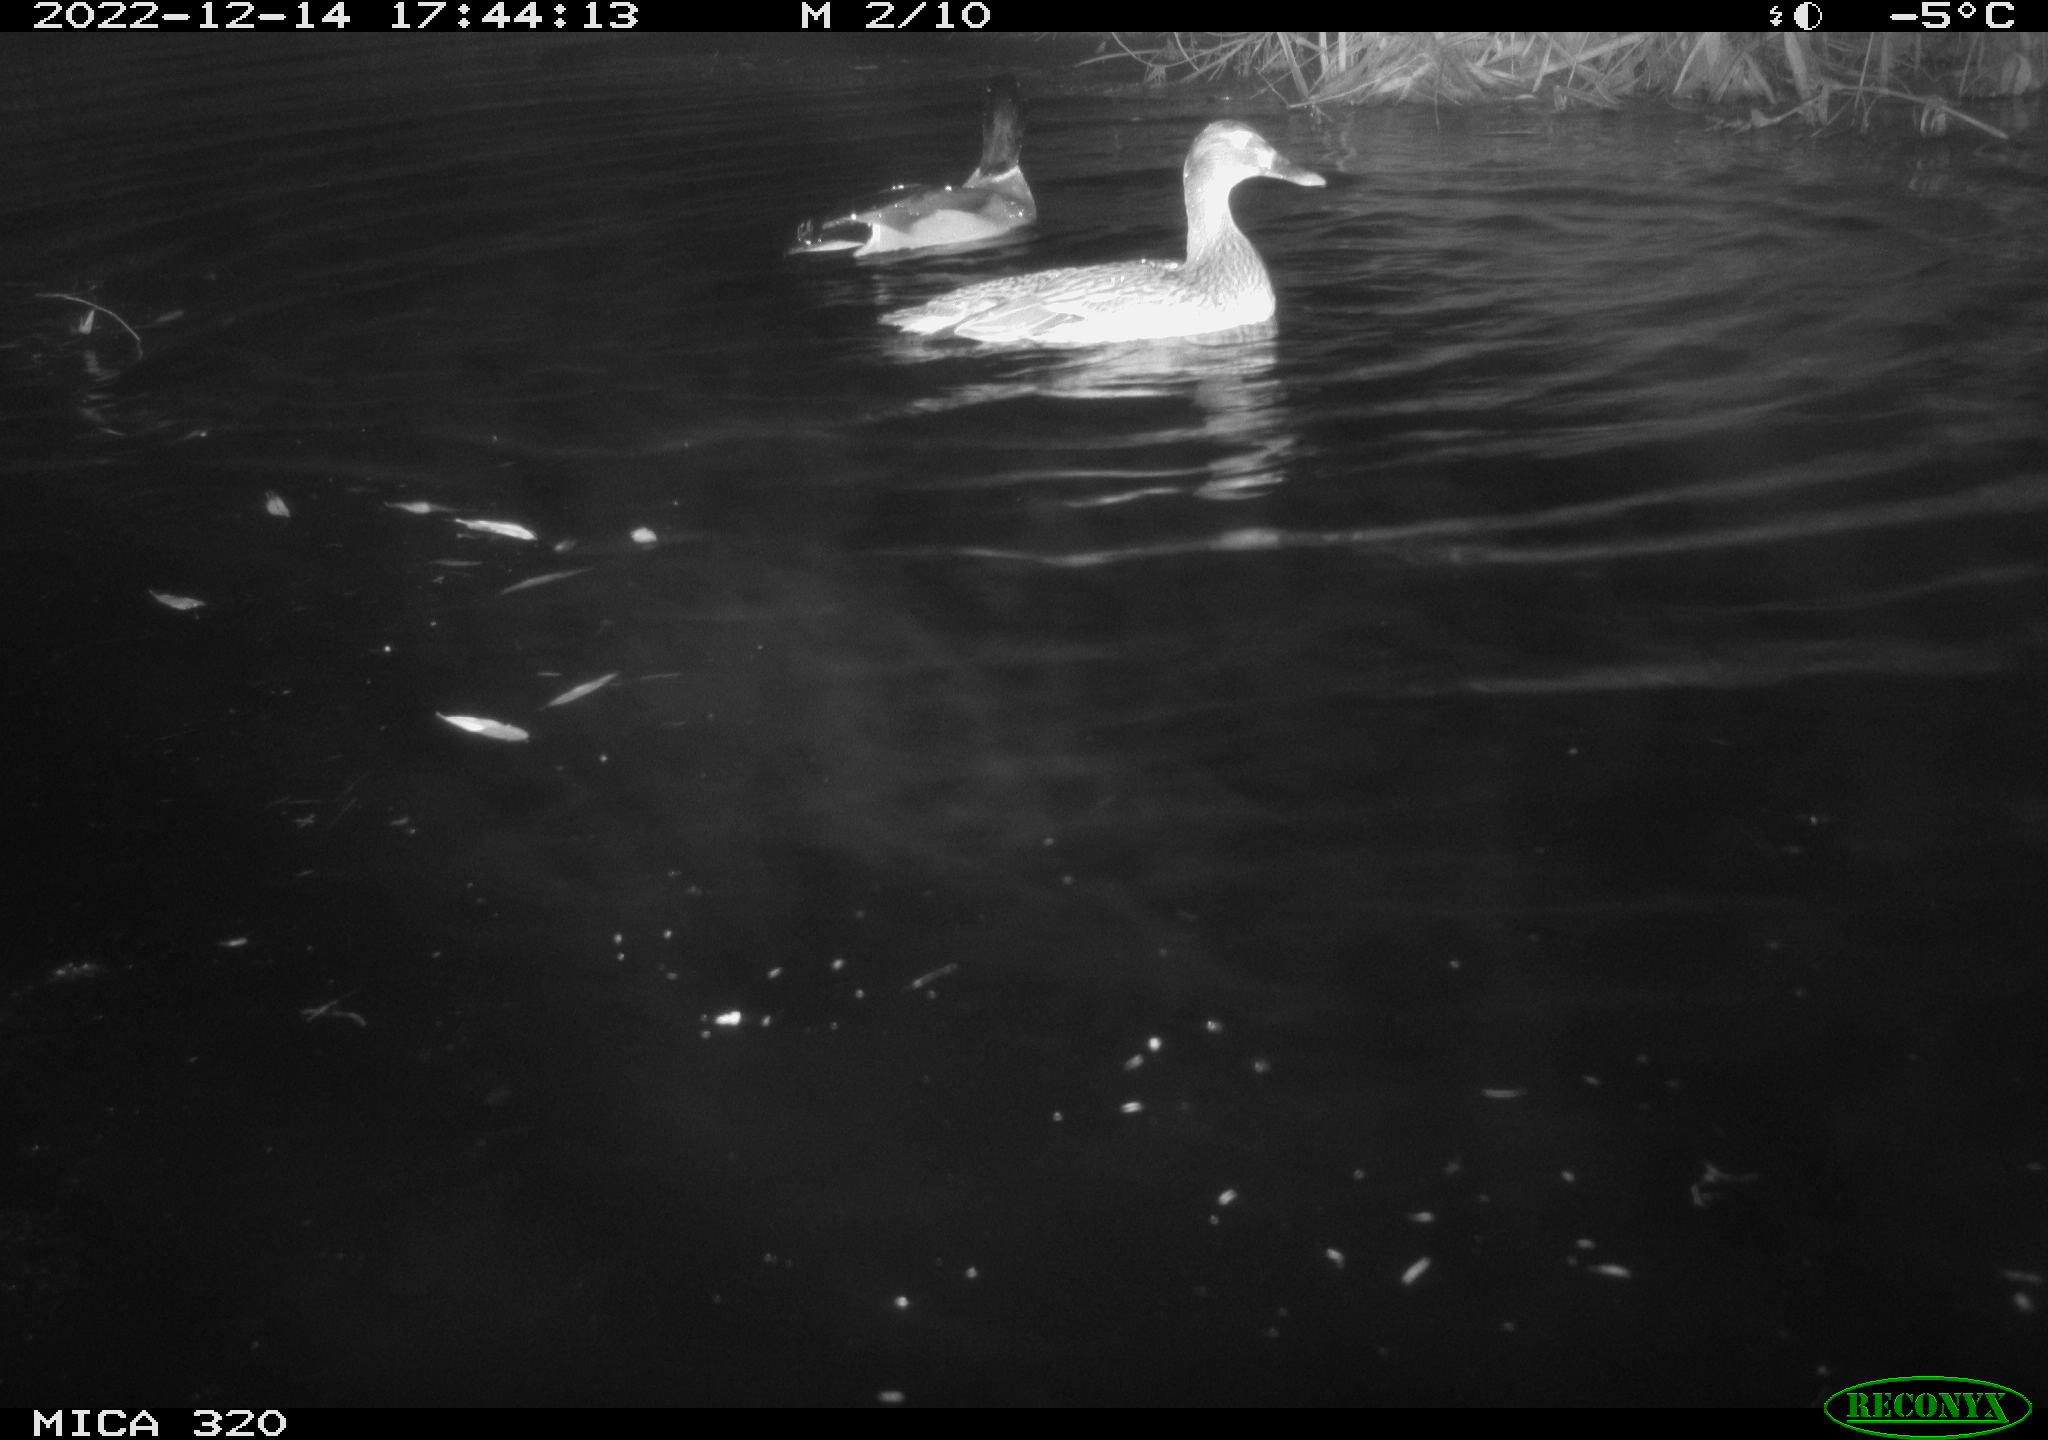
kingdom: Animalia
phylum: Chordata
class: Mammalia
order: Rodentia
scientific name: Rodentia
